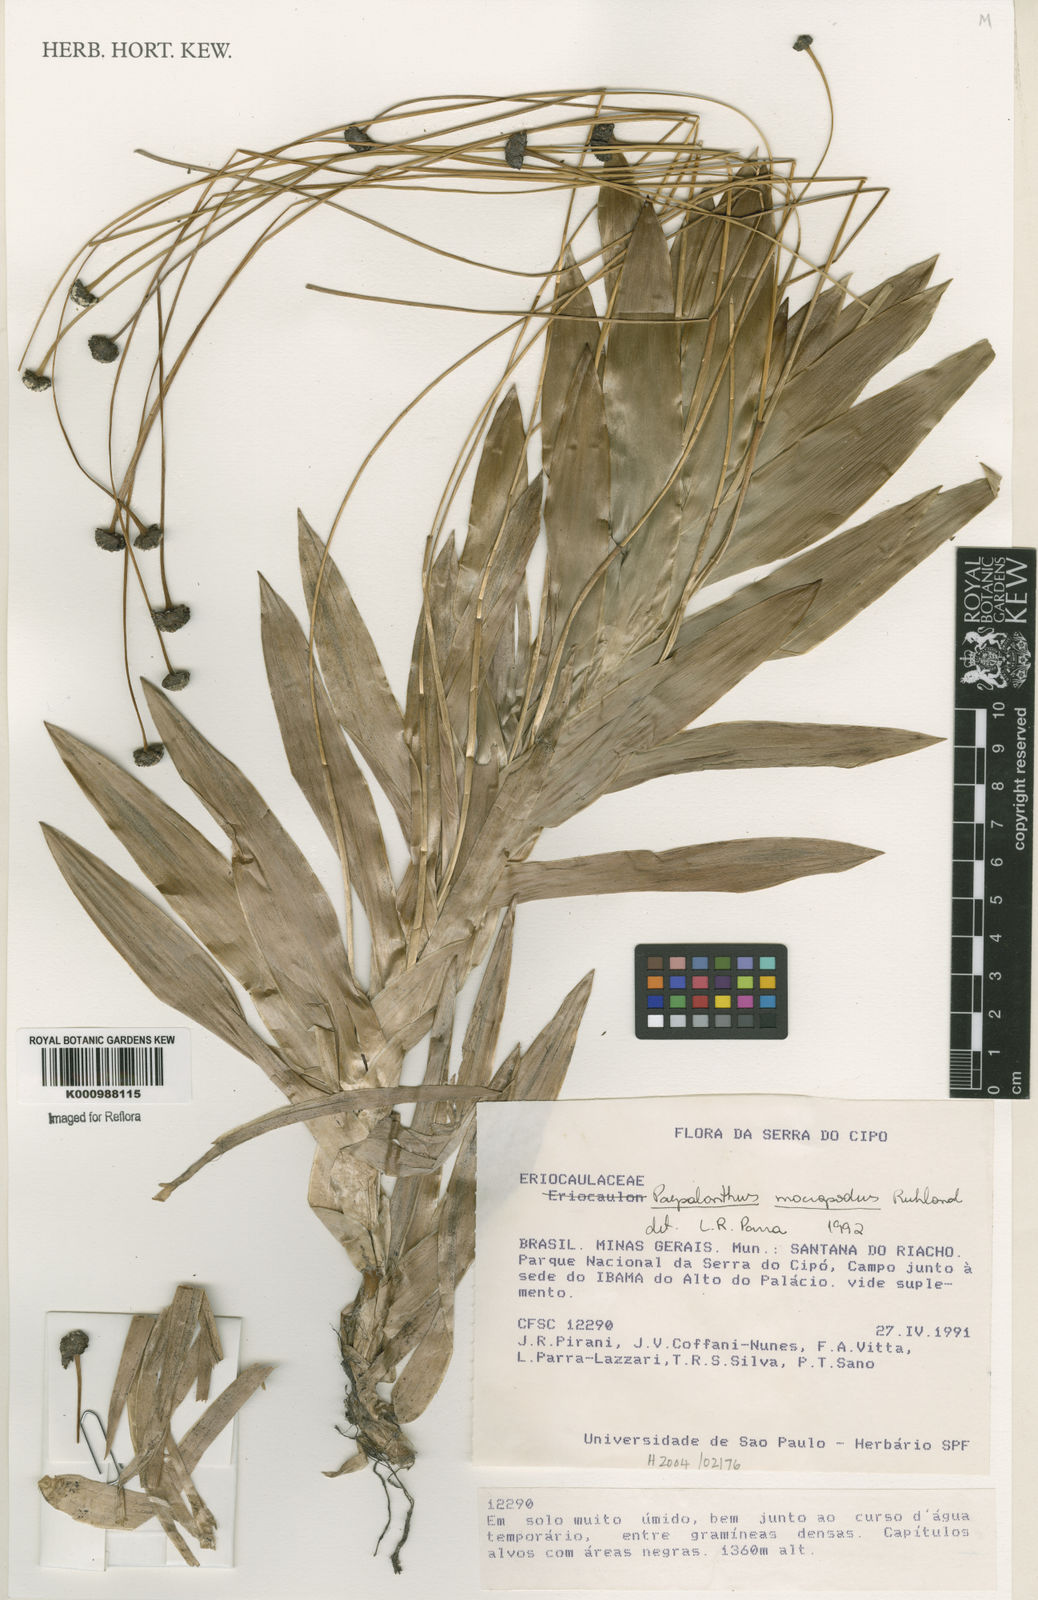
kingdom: Plantae
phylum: Tracheophyta
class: Liliopsida
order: Poales
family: Eriocaulaceae
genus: Paepalanthus
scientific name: Paepalanthus macropodus
